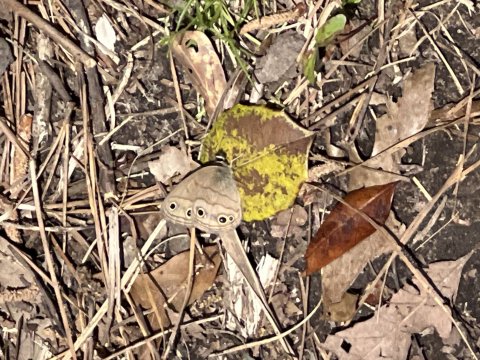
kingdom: Animalia
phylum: Arthropoda
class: Insecta
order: Lepidoptera
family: Nymphalidae
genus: Euptychia
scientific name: Euptychia cymela
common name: Little Wood Satyr
